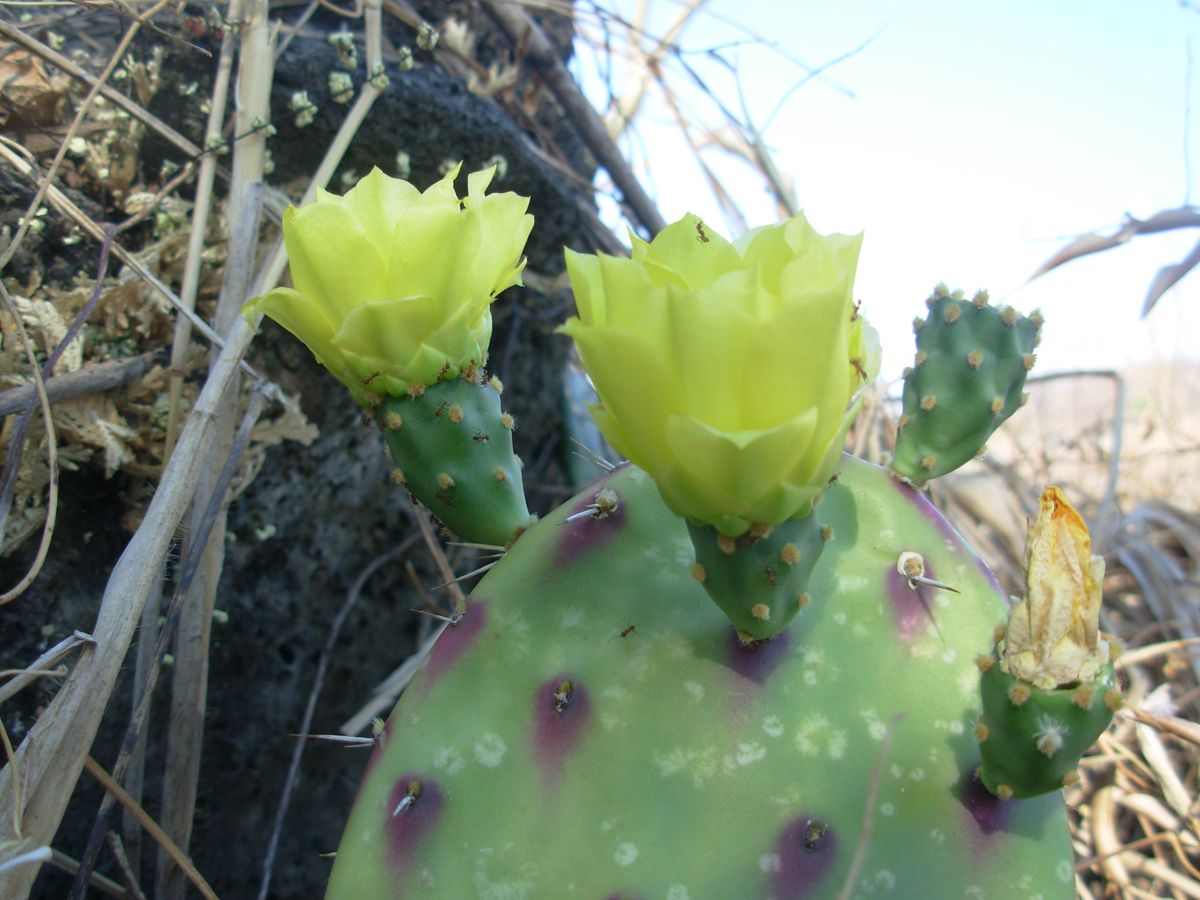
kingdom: Plantae
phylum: Tracheophyta
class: Magnoliopsida
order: Caryophyllales
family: Cactaceae
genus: Opuntia
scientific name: Opuntia decumbens
